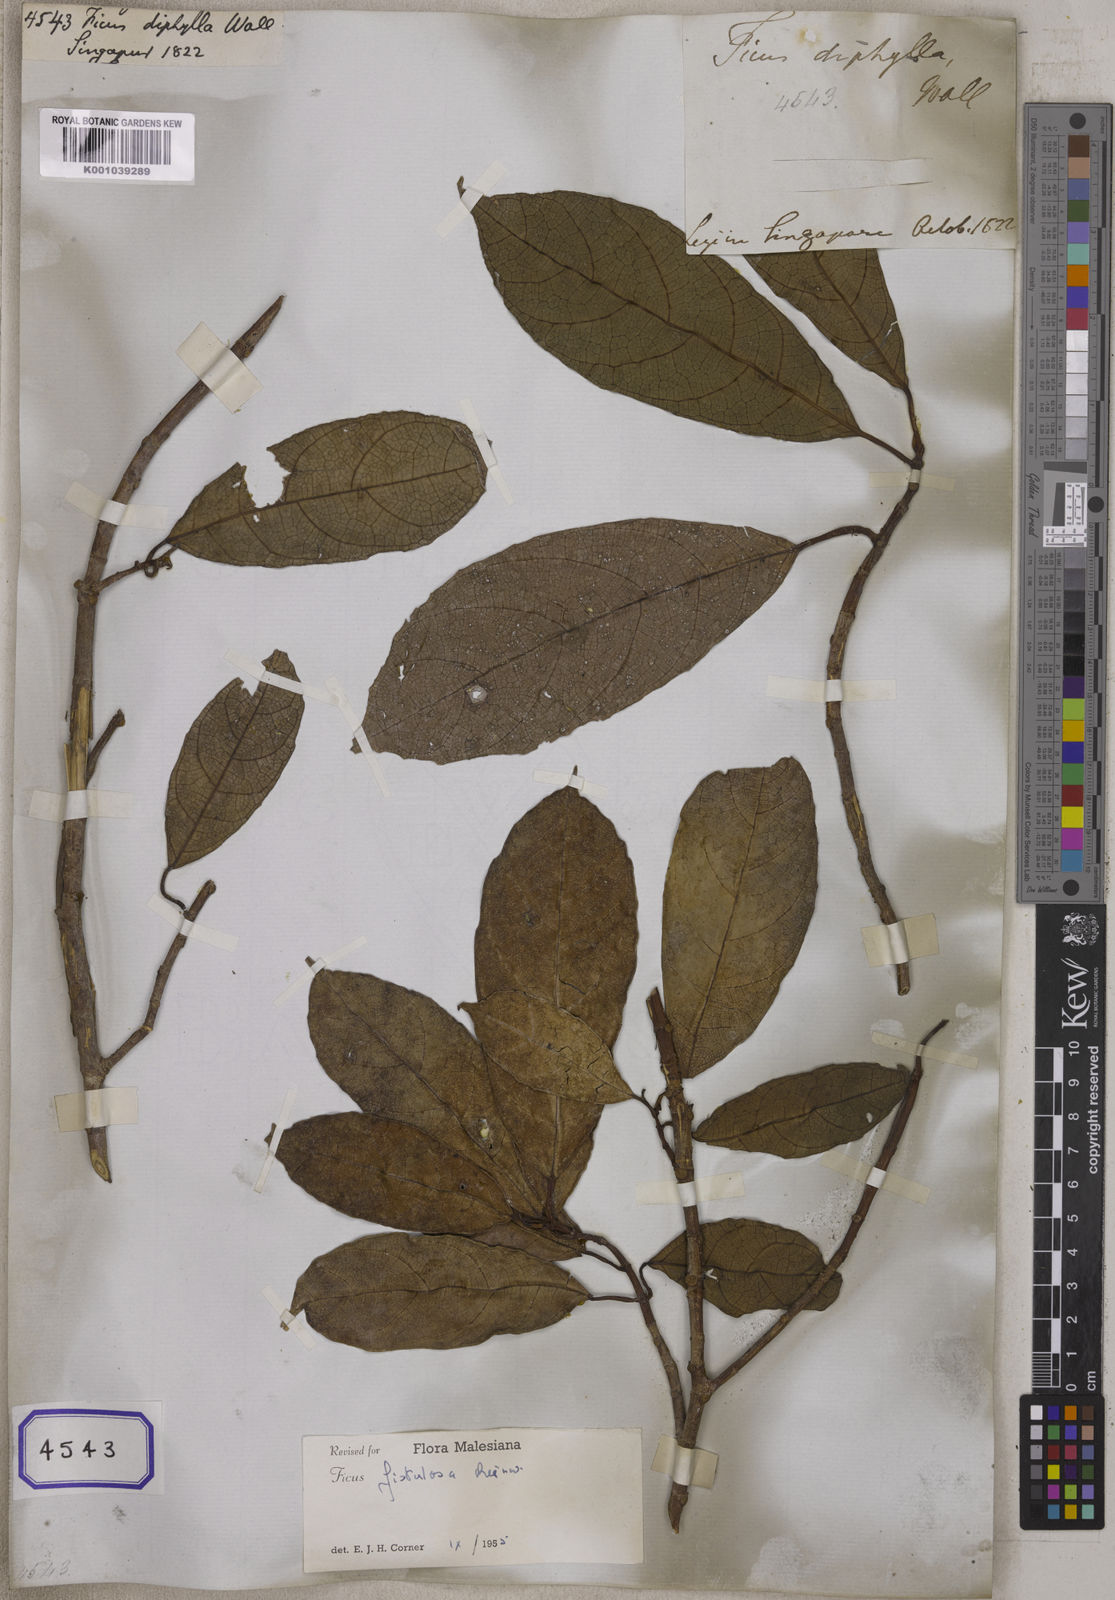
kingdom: Plantae
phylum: Tracheophyta
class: Magnoliopsida
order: Rosales
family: Moraceae
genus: Ficus
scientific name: Ficus
